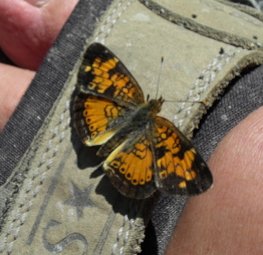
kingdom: Animalia
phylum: Arthropoda
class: Insecta
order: Lepidoptera
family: Nymphalidae
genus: Phyciodes
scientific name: Phyciodes tharos
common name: Northern Crescent
